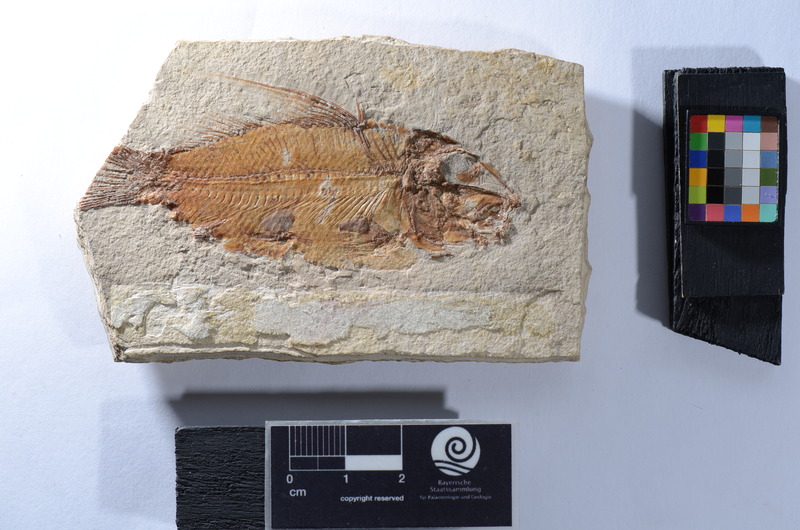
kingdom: Animalia
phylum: Chordata
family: Macrosemiidae
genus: Propterus
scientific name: Propterus microstomus
